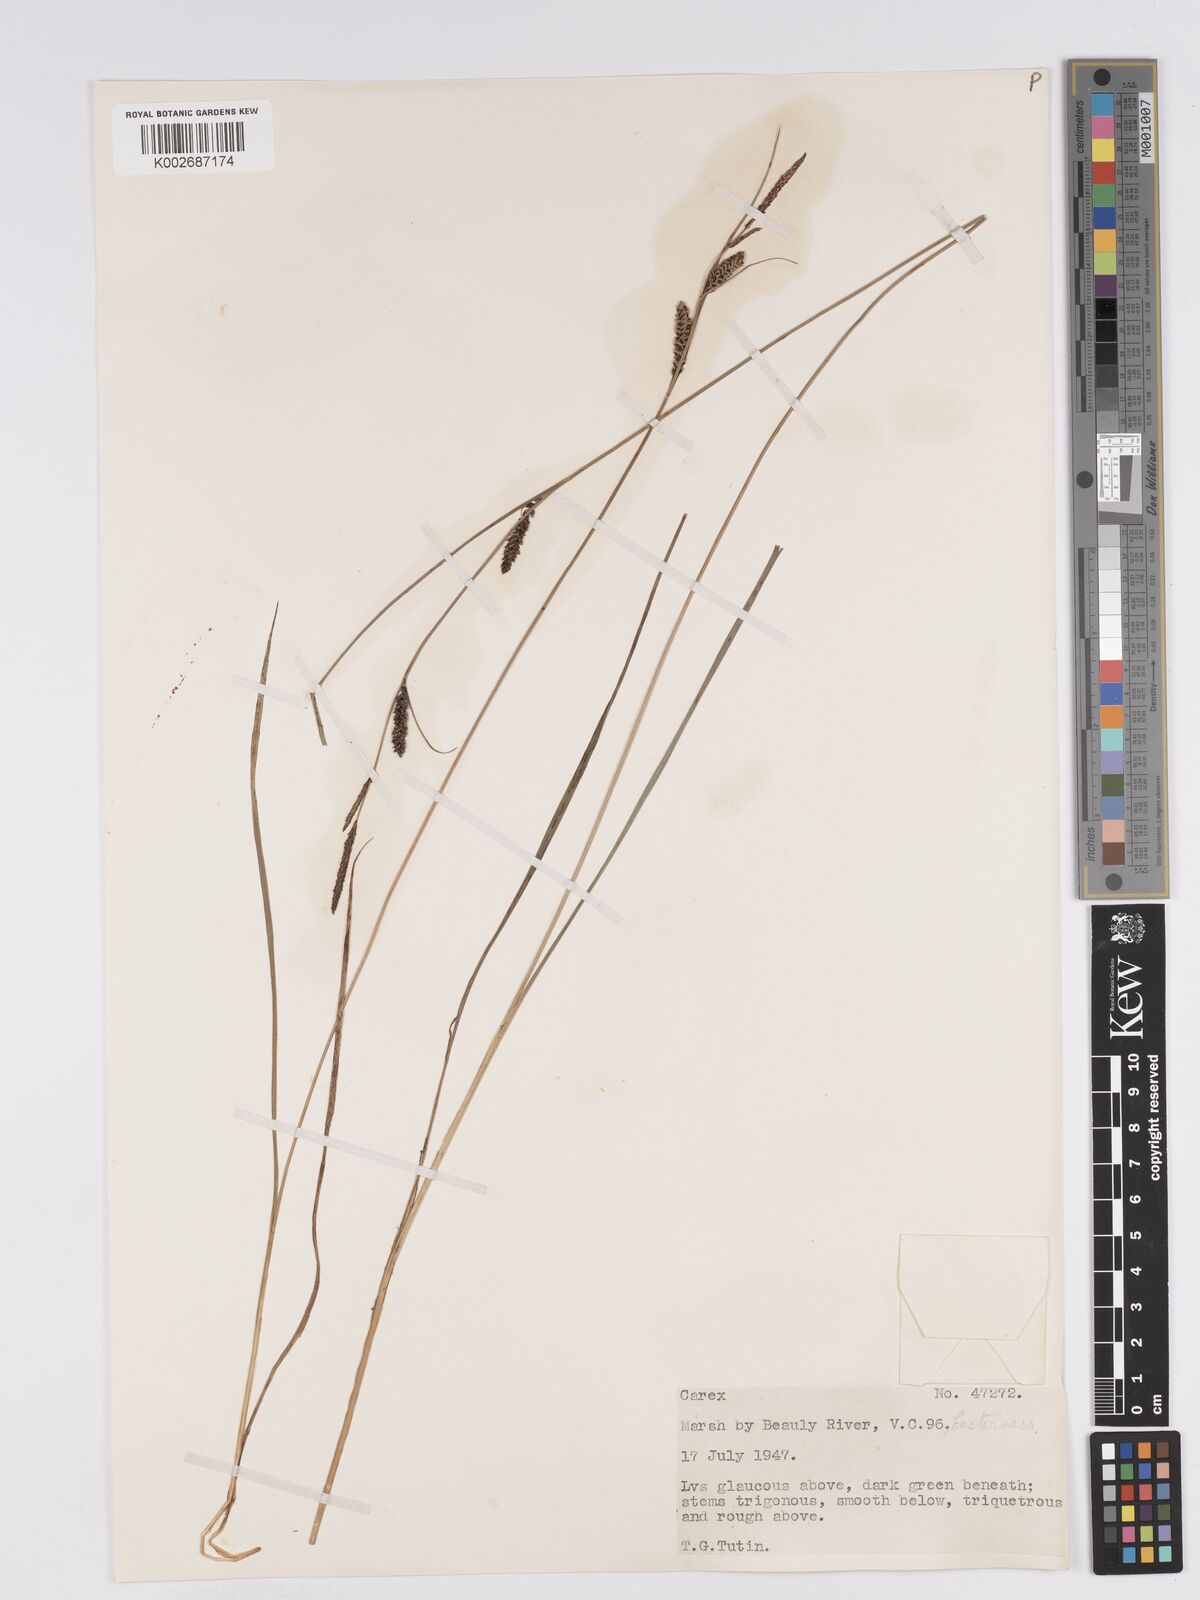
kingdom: Plantae
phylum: Tracheophyta
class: Liliopsida
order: Poales
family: Cyperaceae
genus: Carex
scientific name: Carex nigra
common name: Common sedge
